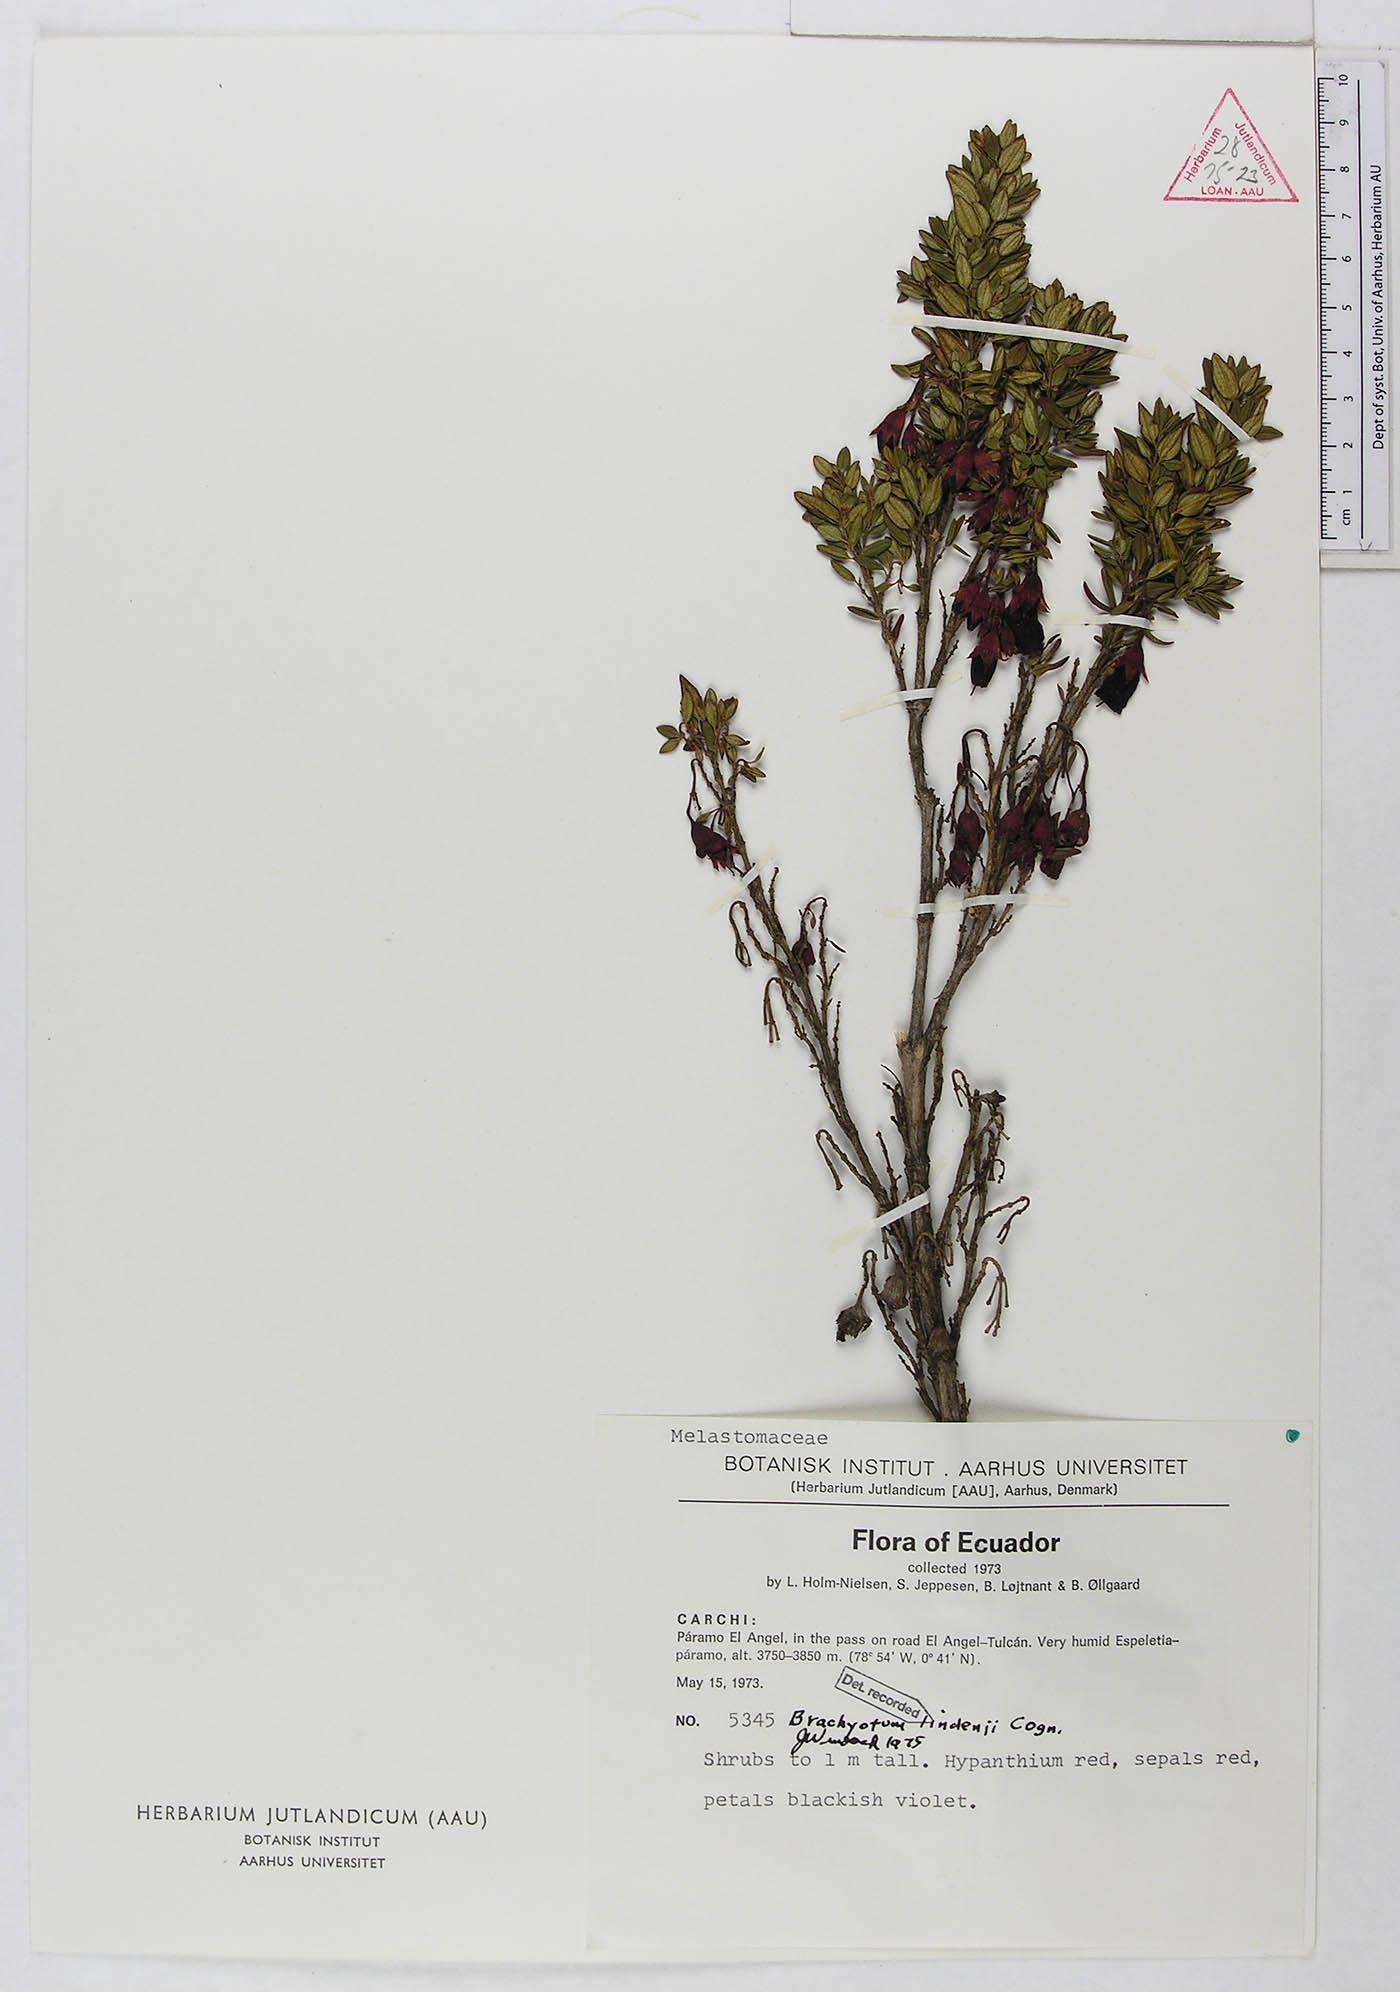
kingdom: Plantae
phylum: Tracheophyta
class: Magnoliopsida
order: Myrtales
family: Melastomataceae
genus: Brachyotum
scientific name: Brachyotum lindenii
